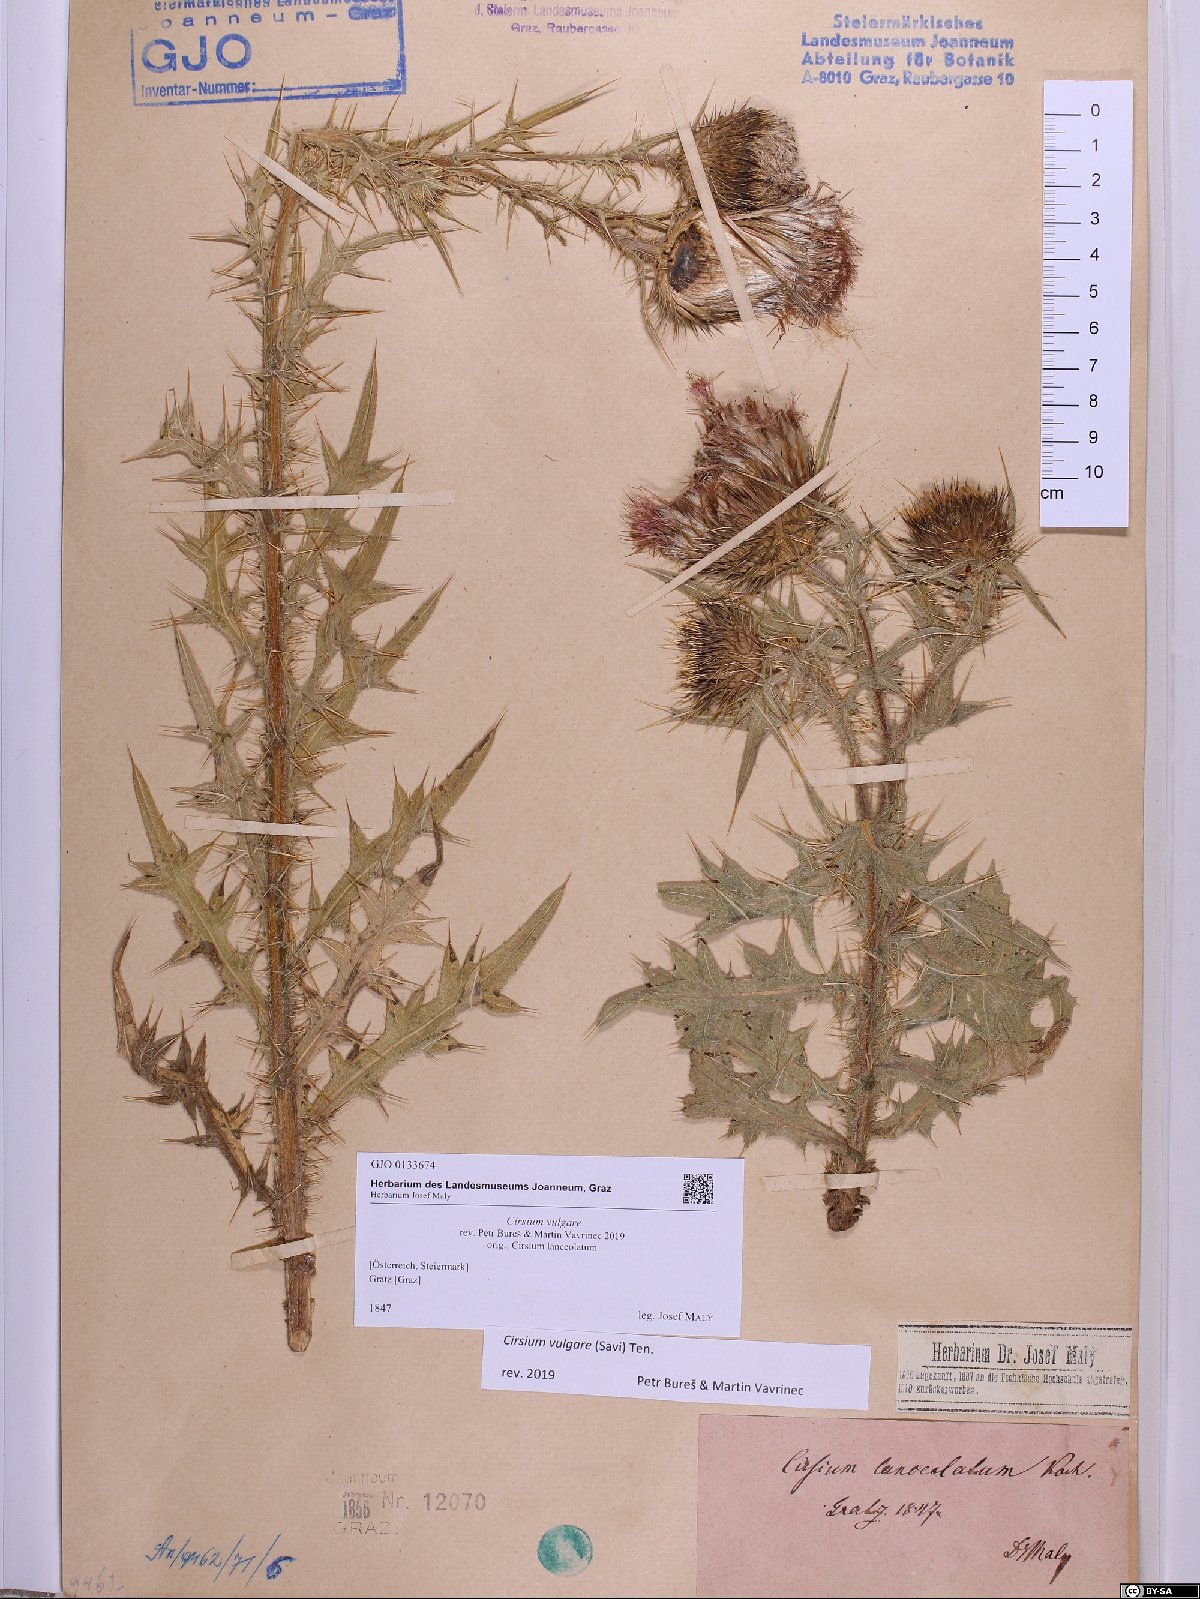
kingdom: Plantae
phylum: Tracheophyta
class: Magnoliopsida
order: Asterales
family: Asteraceae
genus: Cirsium
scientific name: Cirsium vulgare
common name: Bull thistle
